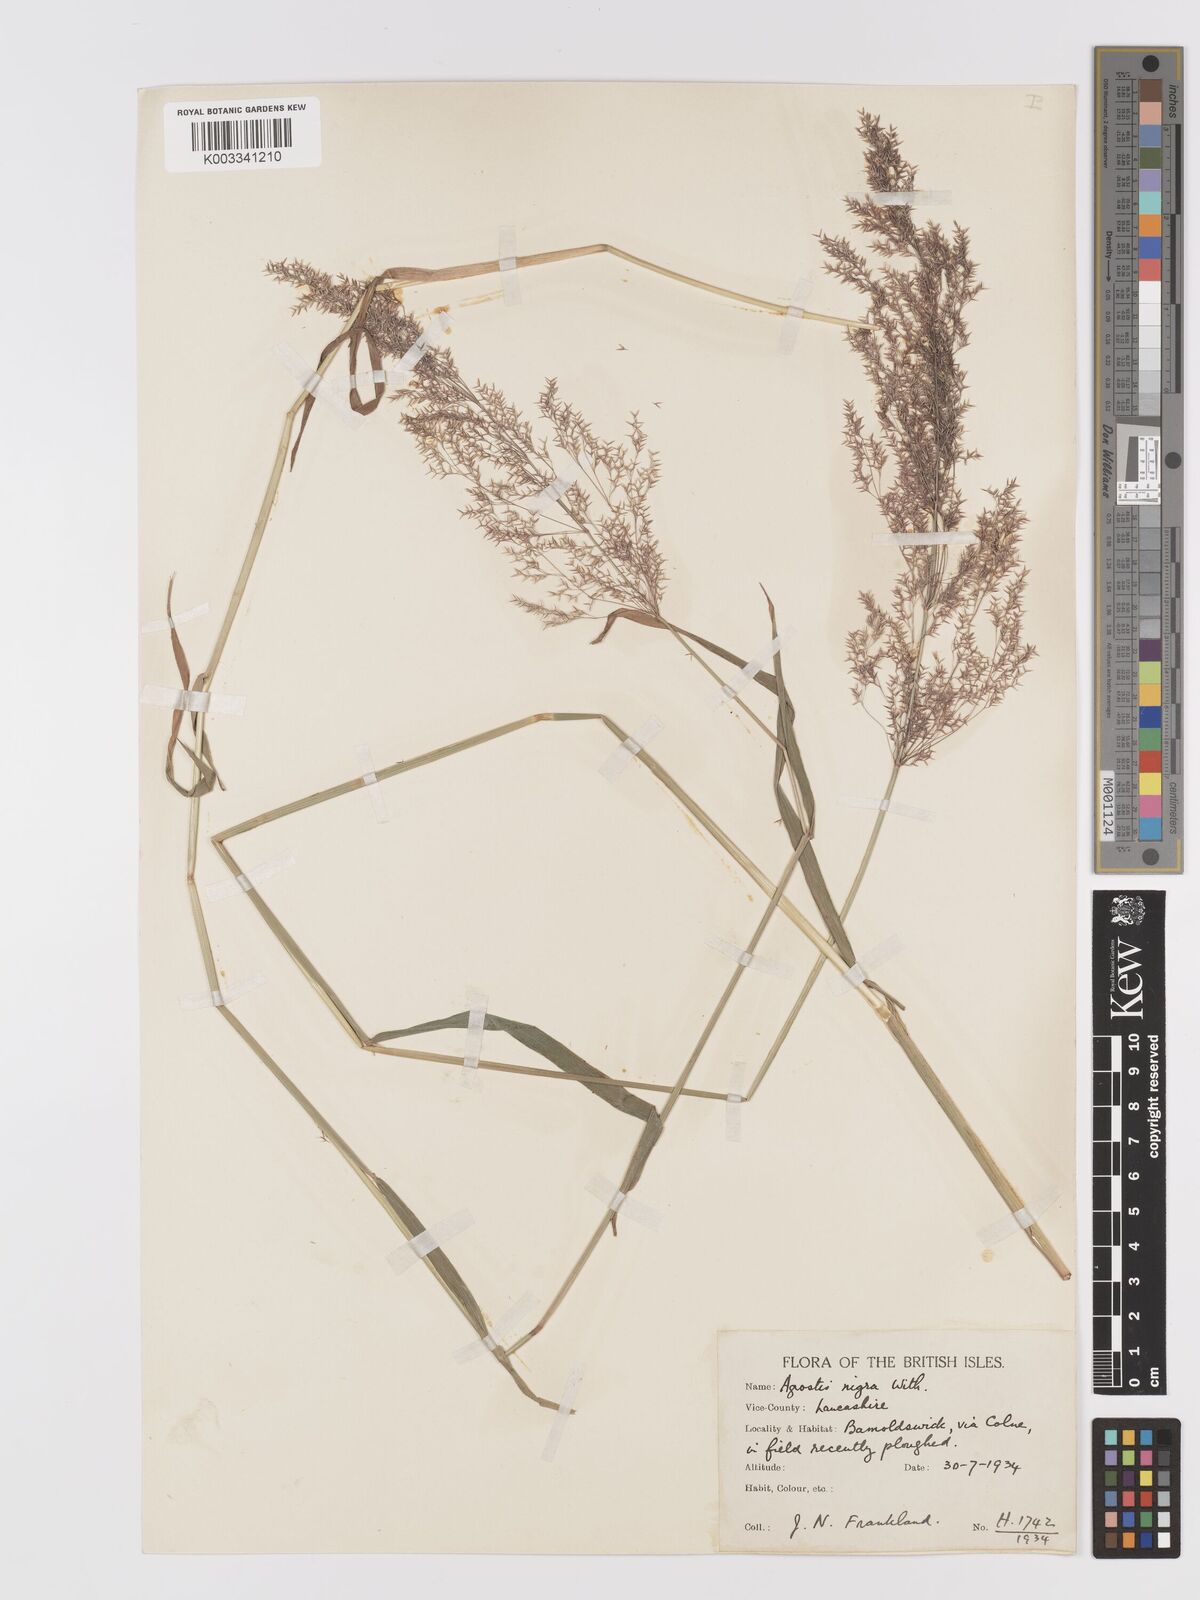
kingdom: Plantae
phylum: Tracheophyta
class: Liliopsida
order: Poales
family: Poaceae
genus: Agrostis
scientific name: Agrostis gigantea
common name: Black bent
